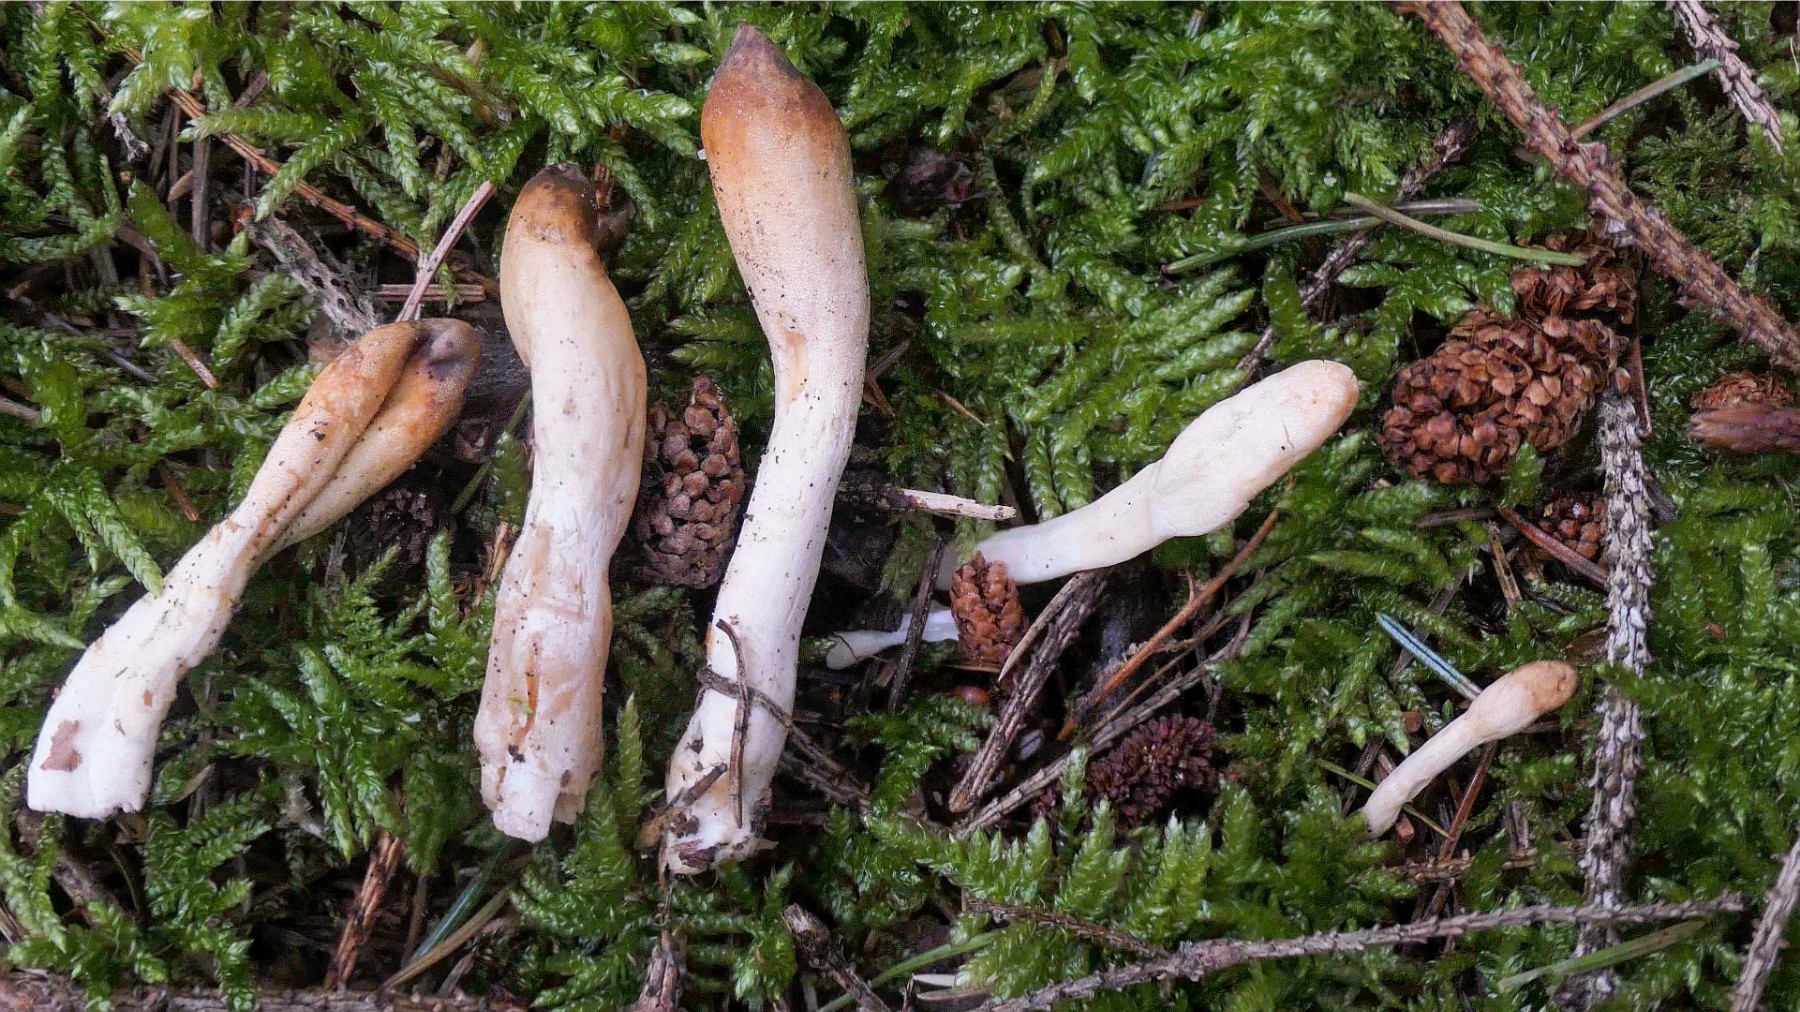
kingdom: Fungi
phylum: Ascomycota
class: Sordariomycetes
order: Hypocreales
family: Hypocreaceae
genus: Trichoderma
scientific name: Trichoderma leucopus
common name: lysstokket kødkerne
